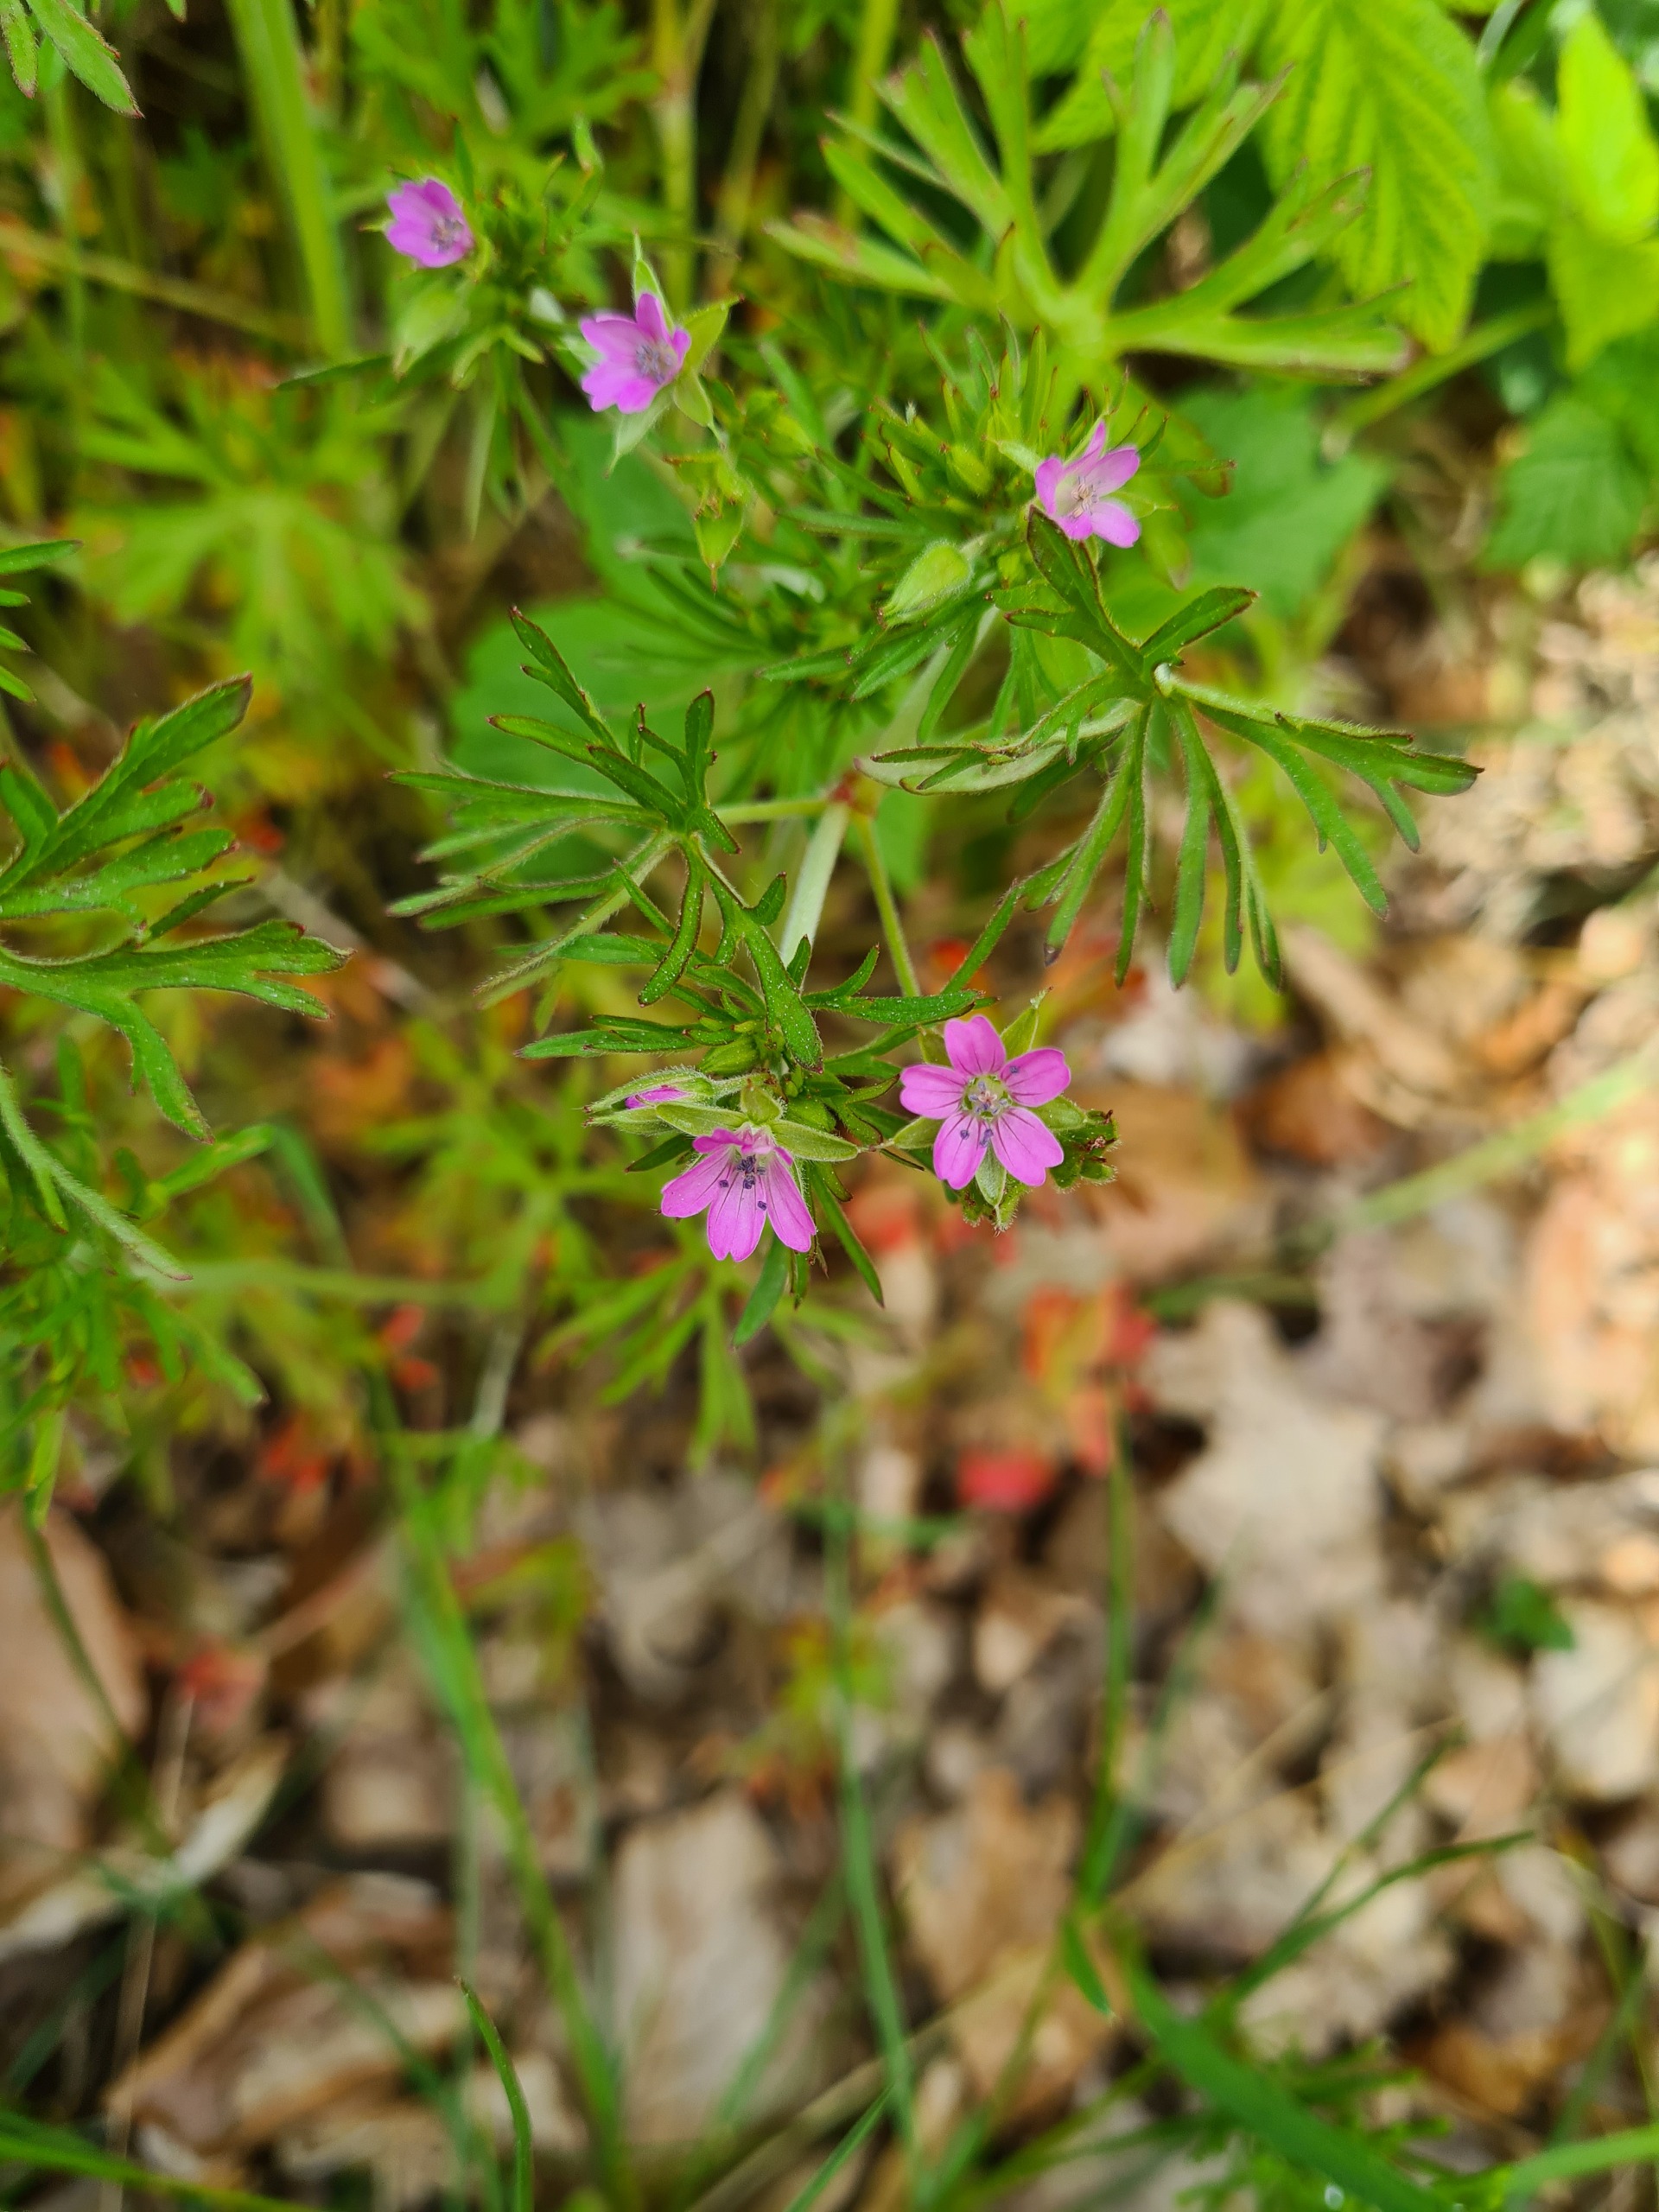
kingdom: Plantae
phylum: Tracheophyta
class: Magnoliopsida
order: Geraniales
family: Geraniaceae
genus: Geranium
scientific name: Geranium dissectum
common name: Kløftet storkenæb
